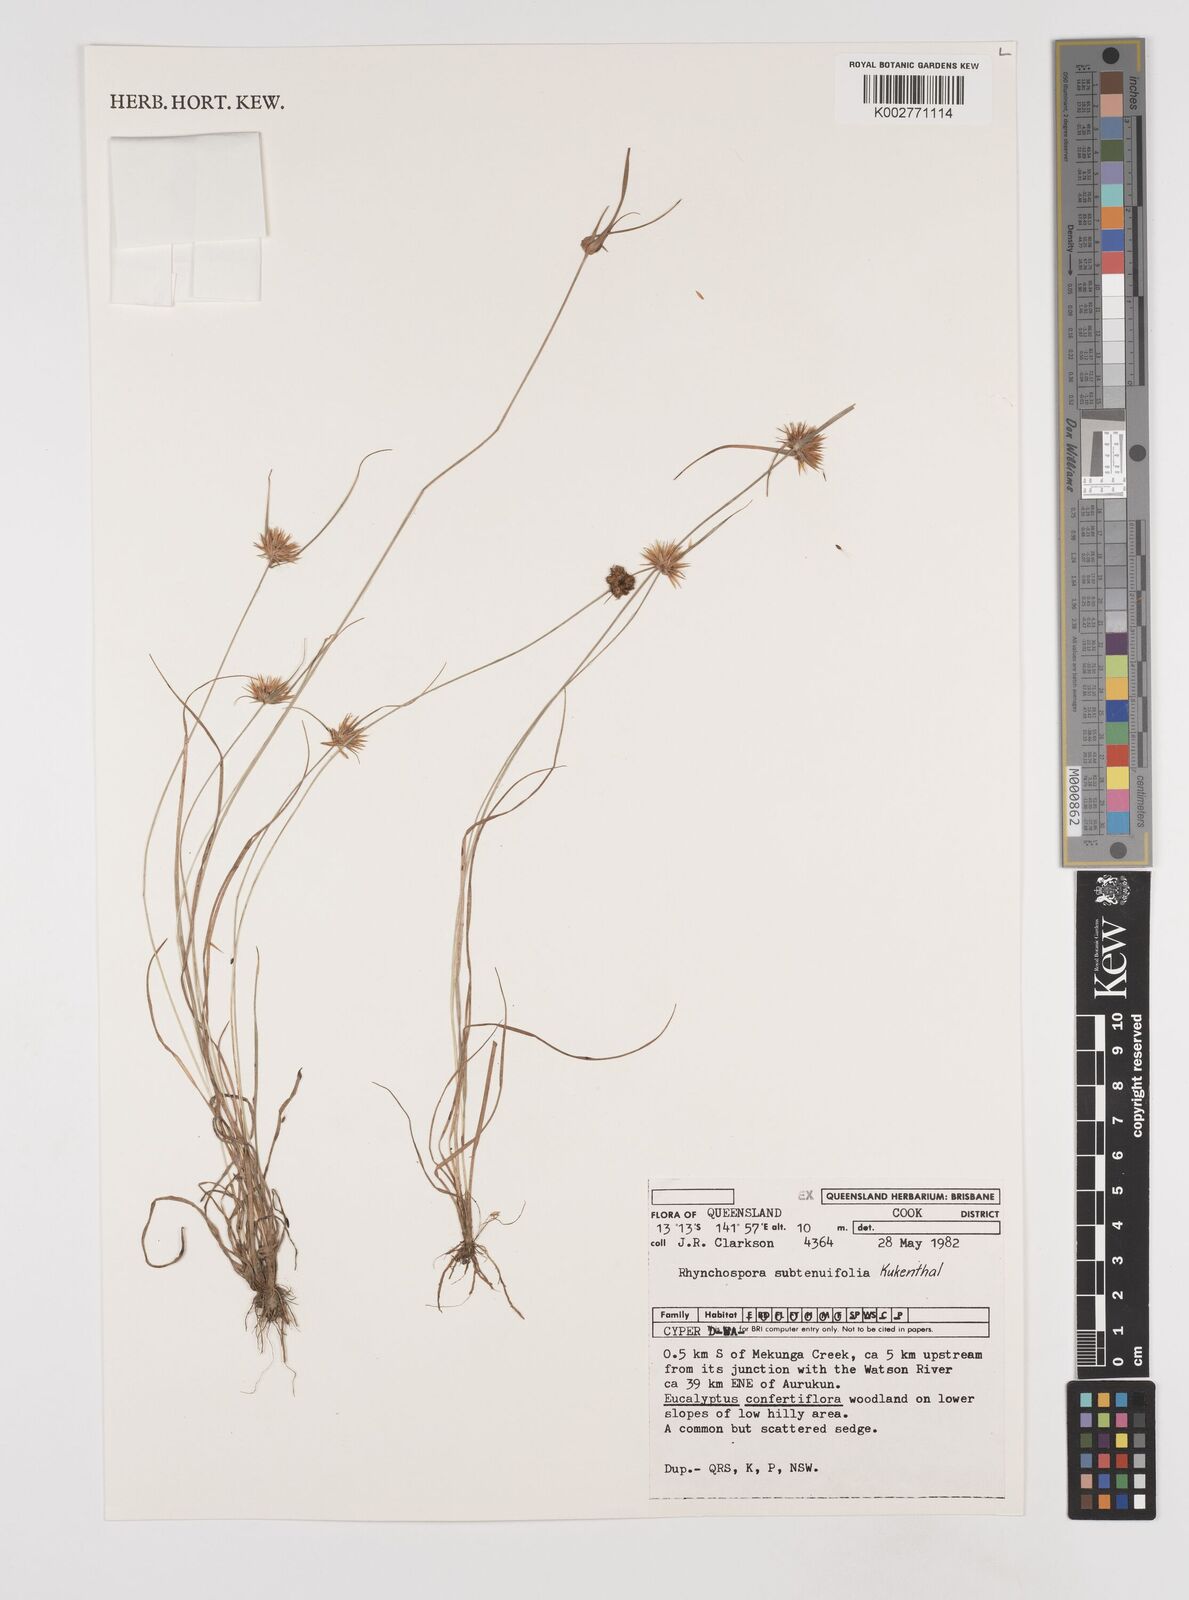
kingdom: Plantae
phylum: Tracheophyta
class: Liliopsida
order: Poales
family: Cyperaceae
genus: Rhynchospora
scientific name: Rhynchospora subtenuifolia
